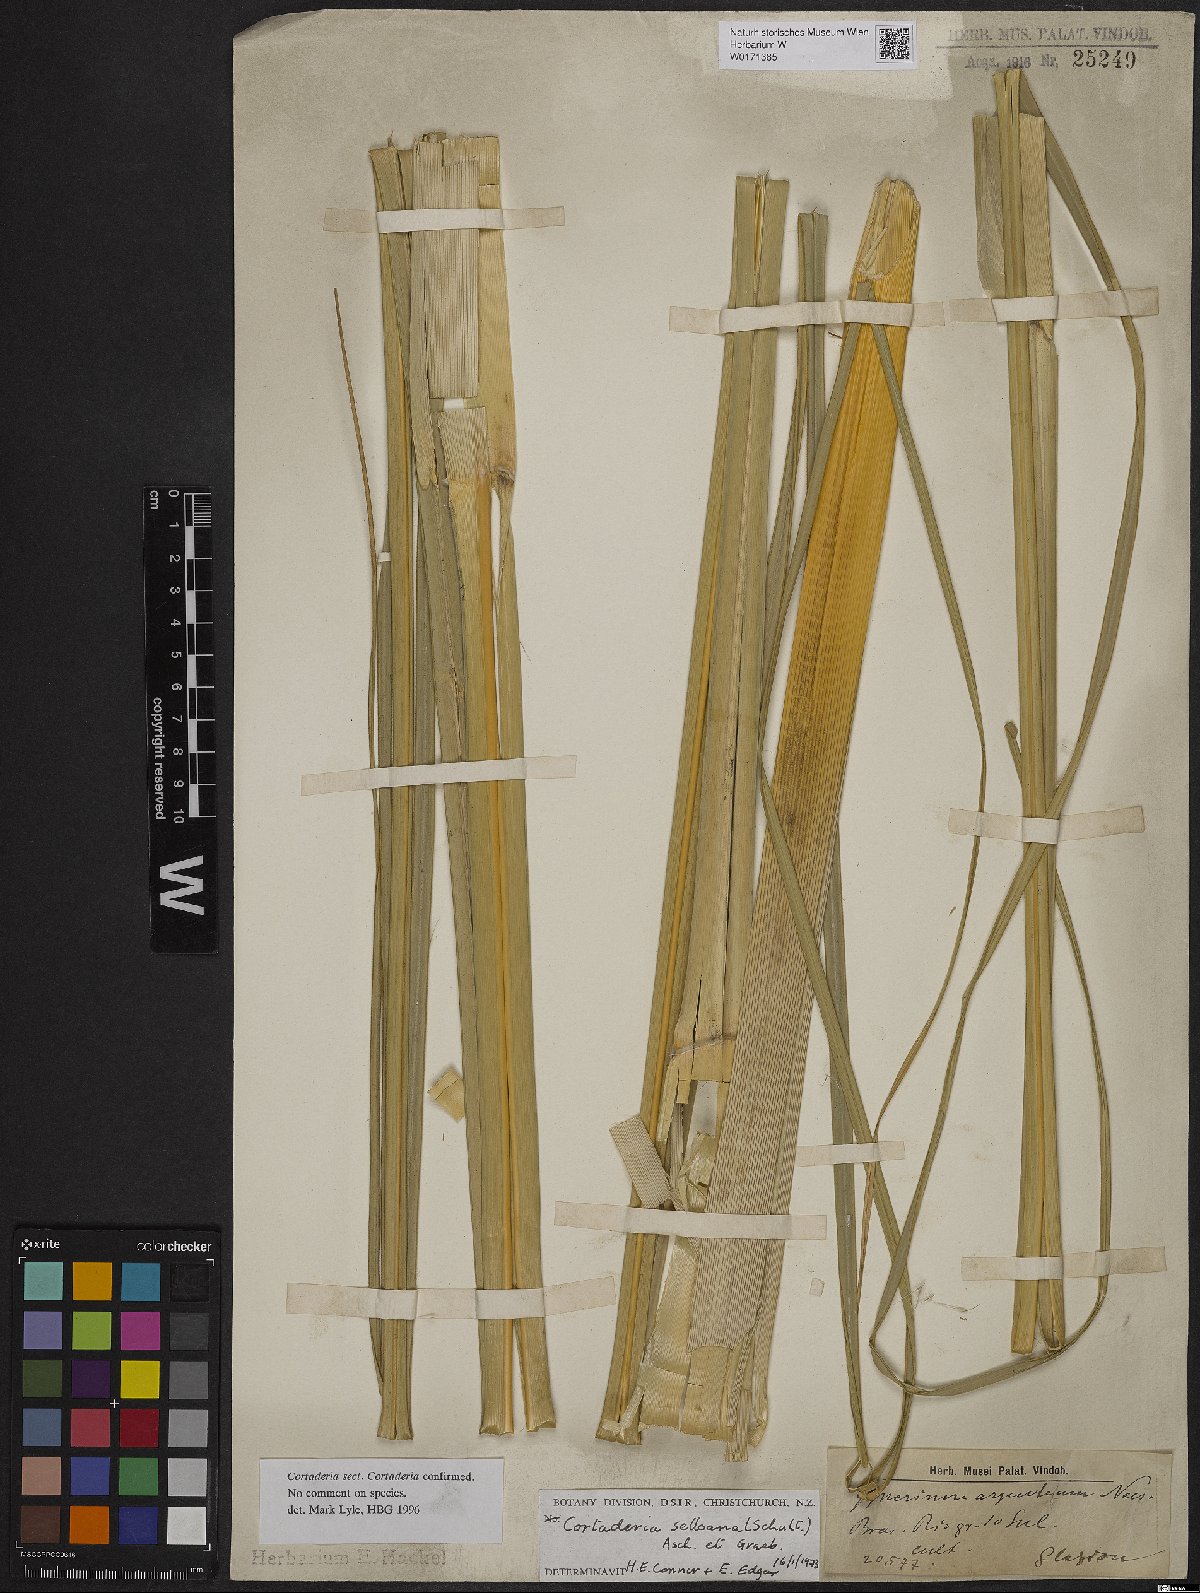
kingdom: Plantae
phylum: Tracheophyta
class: Liliopsida
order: Poales
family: Poaceae
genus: Cortaderia
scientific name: Cortaderia selloana
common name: Uruguayan pampas grass
